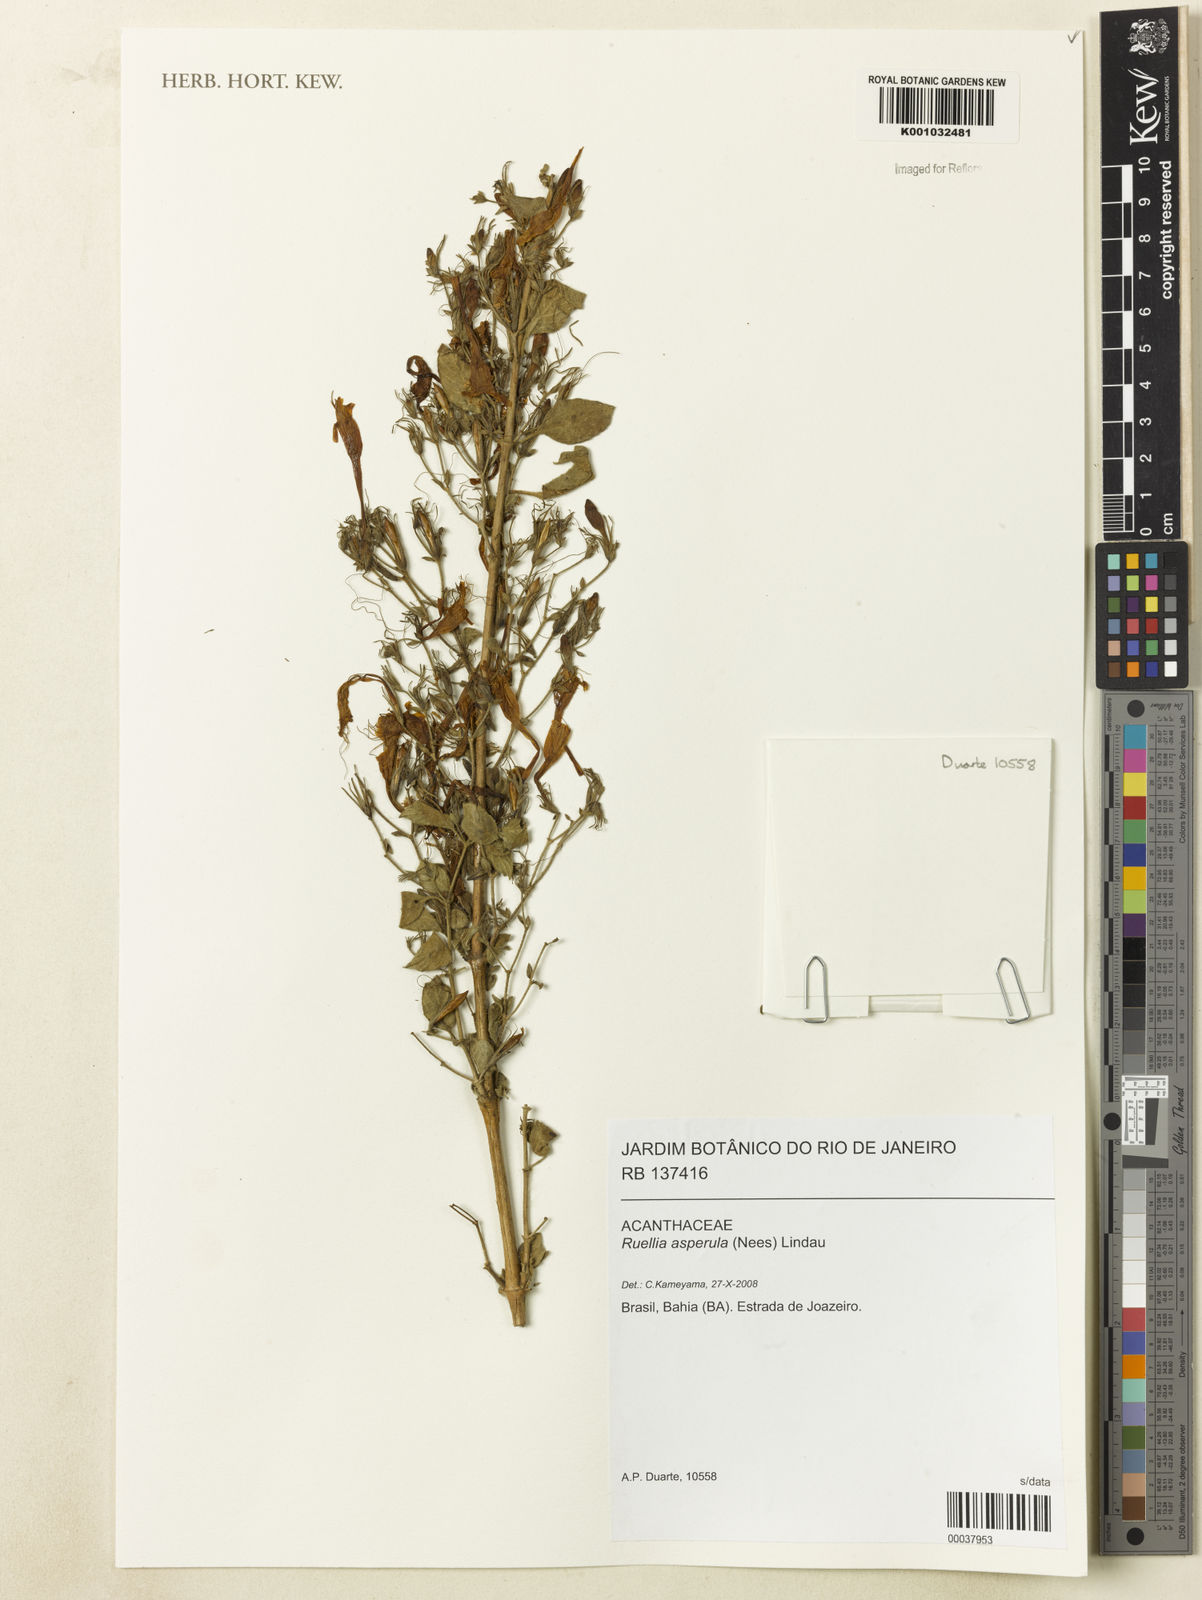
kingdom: Plantae
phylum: Tracheophyta
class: Magnoliopsida
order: Lamiales
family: Acanthaceae
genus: Ruellia
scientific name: Ruellia asperula
